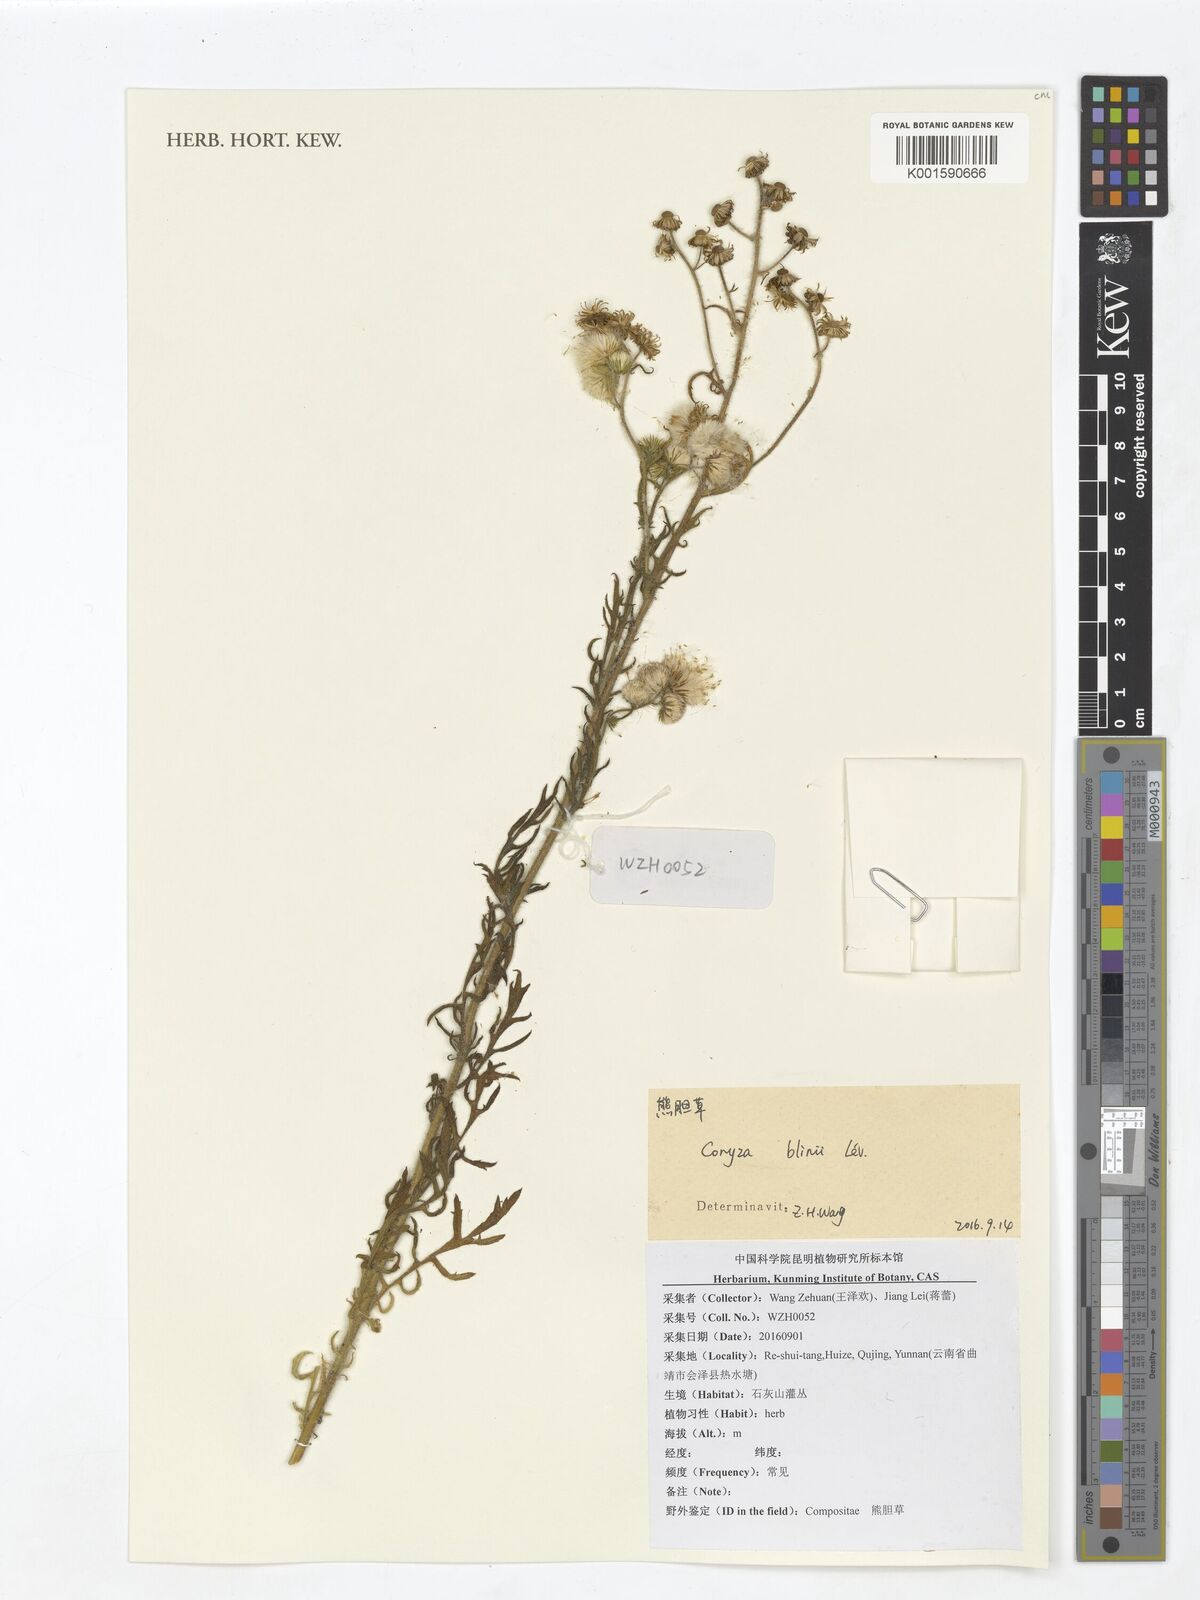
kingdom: Plantae
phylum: Tracheophyta
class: Magnoliopsida
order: Asterales
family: Asteraceae
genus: Eschenbachia
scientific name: Eschenbachia blinii
